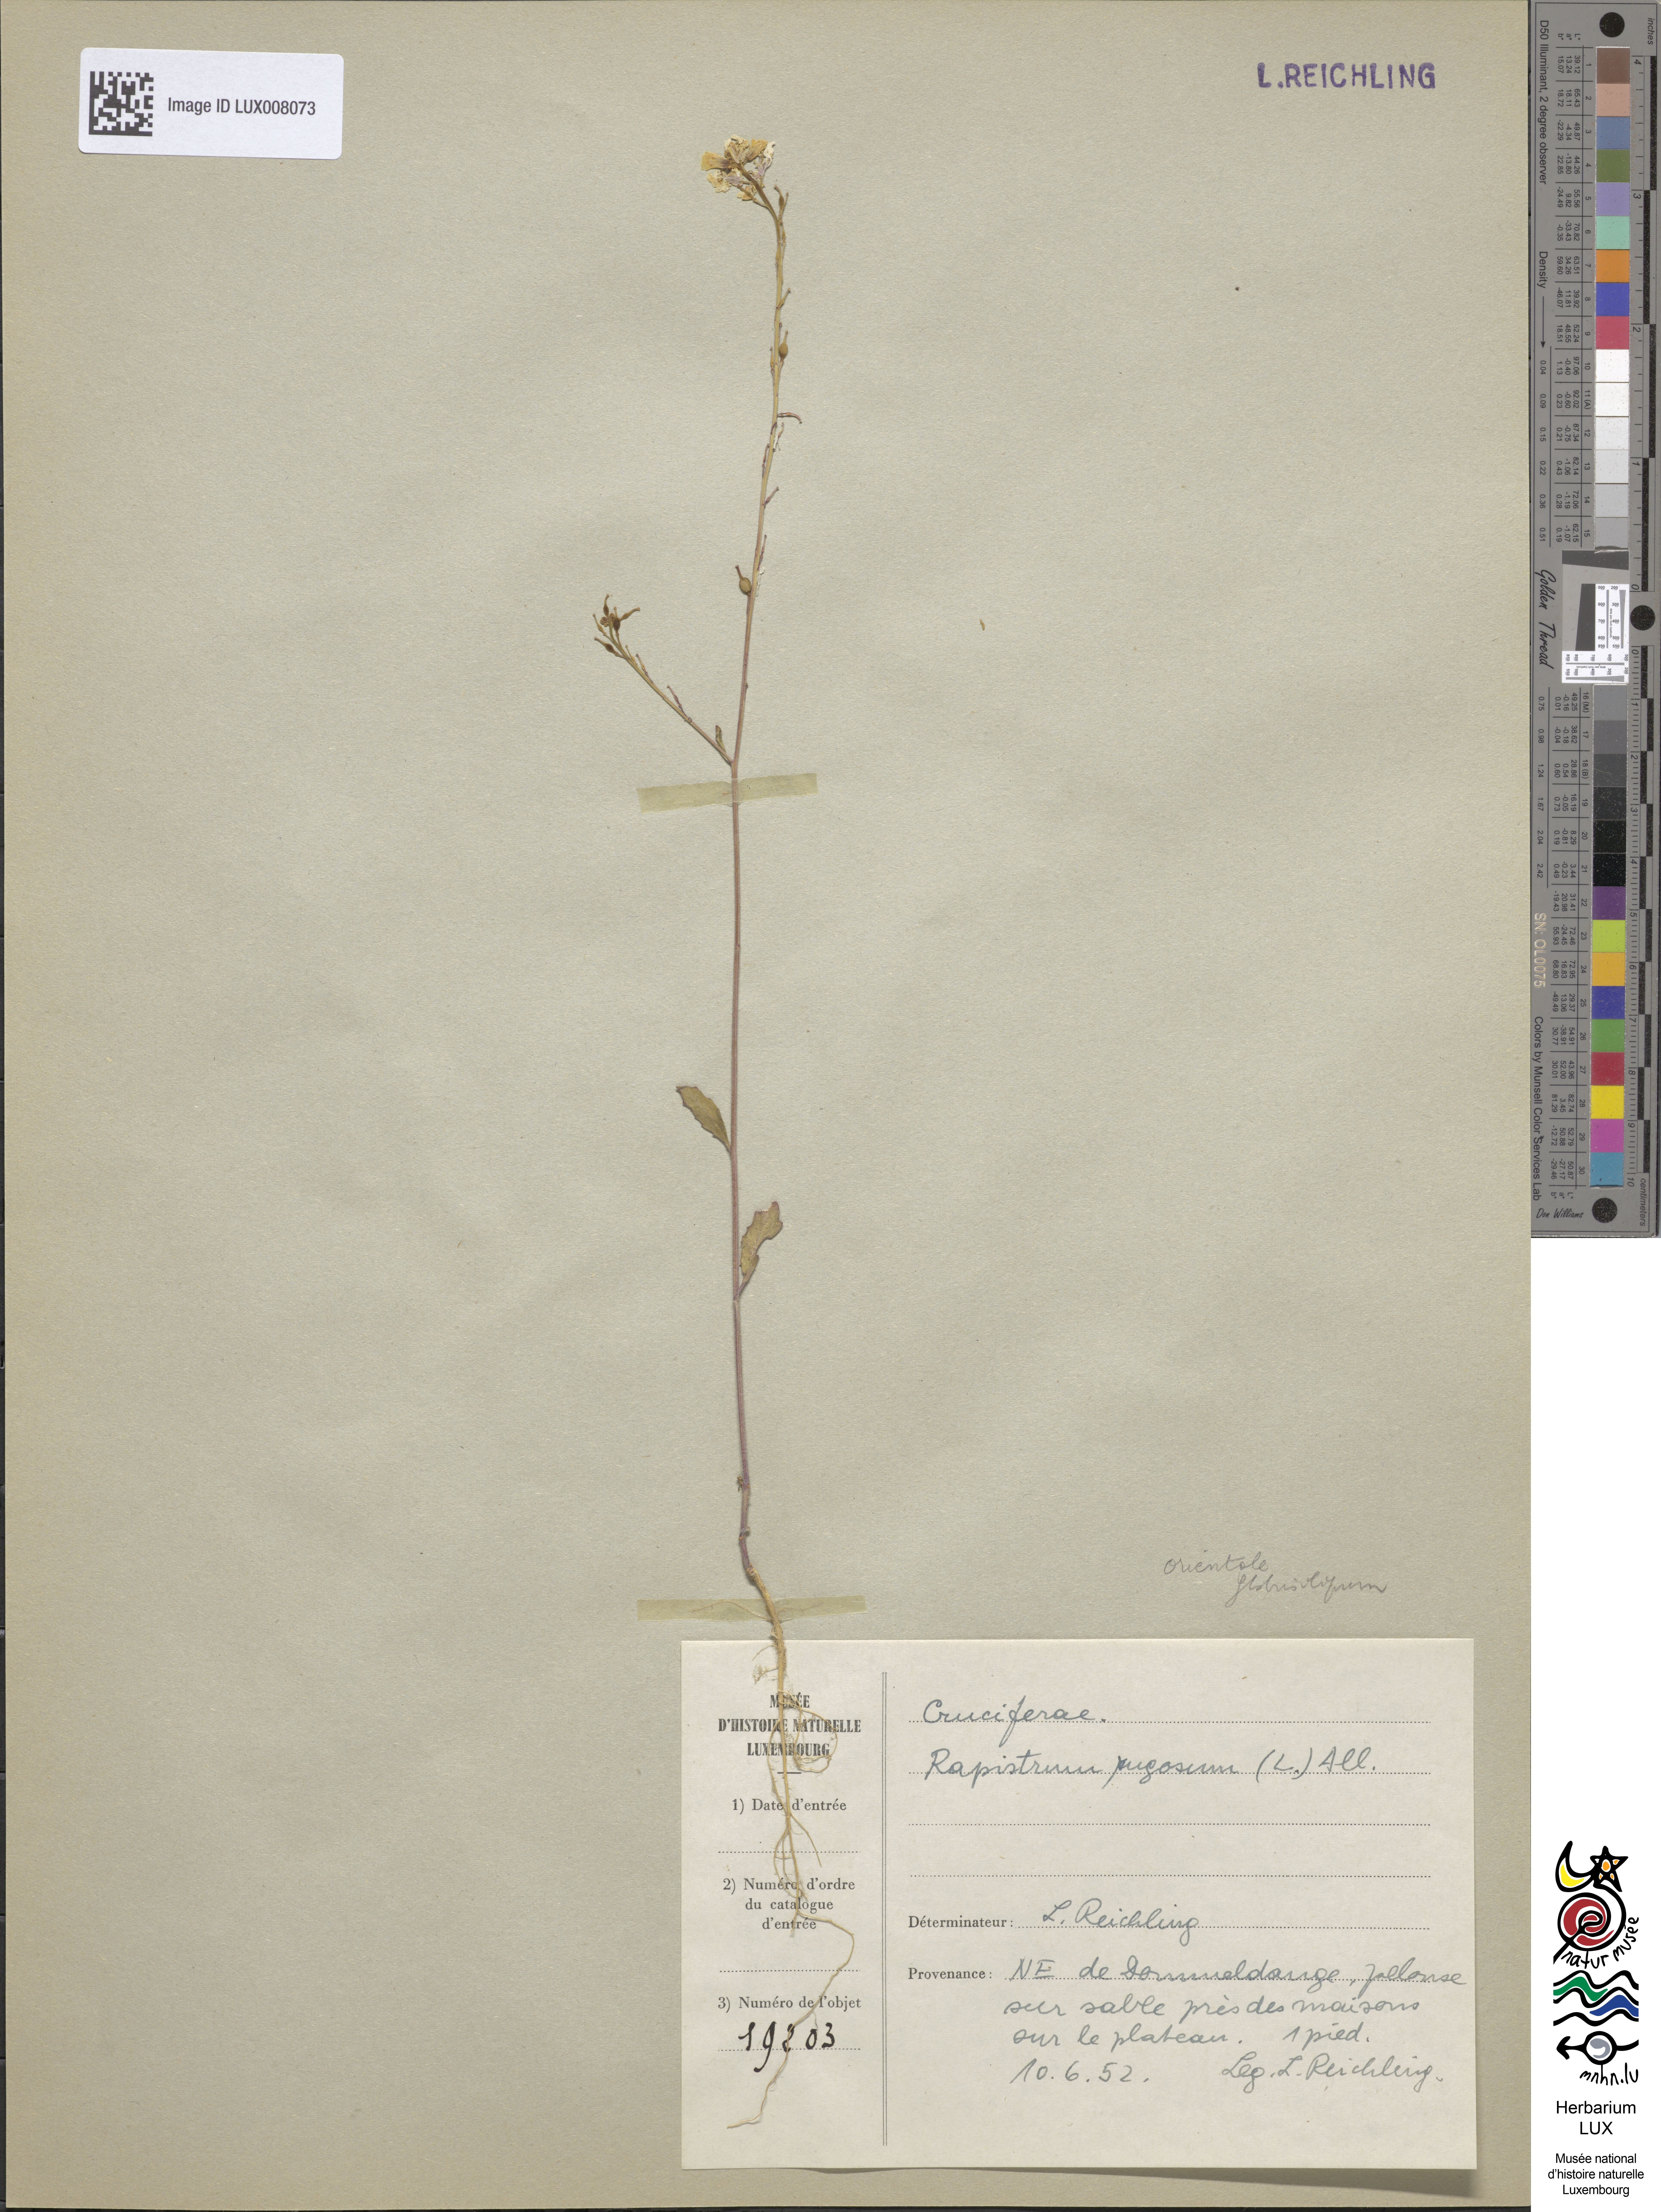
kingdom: Plantae
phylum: Tracheophyta
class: Magnoliopsida
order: Brassicales
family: Brassicaceae
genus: Rapistrum
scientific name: Rapistrum rugosum
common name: Annual bastardcabbage
